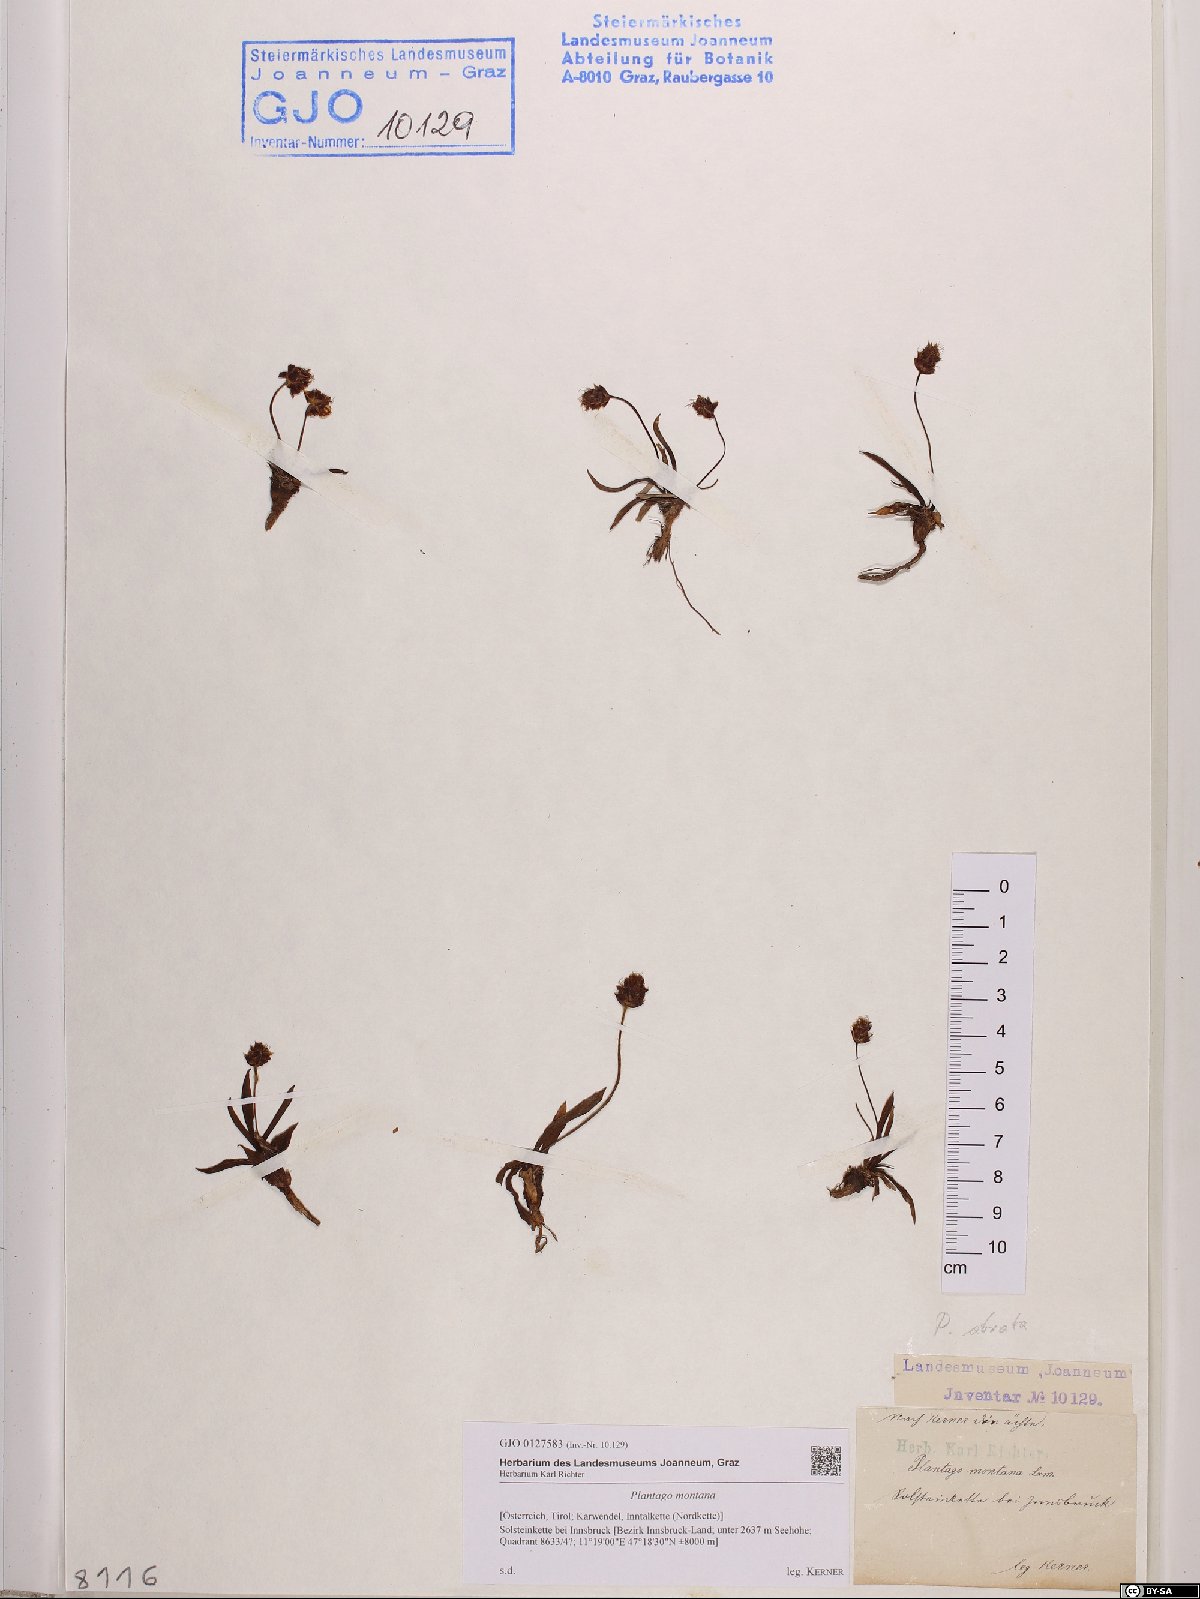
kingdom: Plantae
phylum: Tracheophyta
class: Magnoliopsida
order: Lamiales
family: Plantaginaceae
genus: Plantago
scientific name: Plantago atrata
